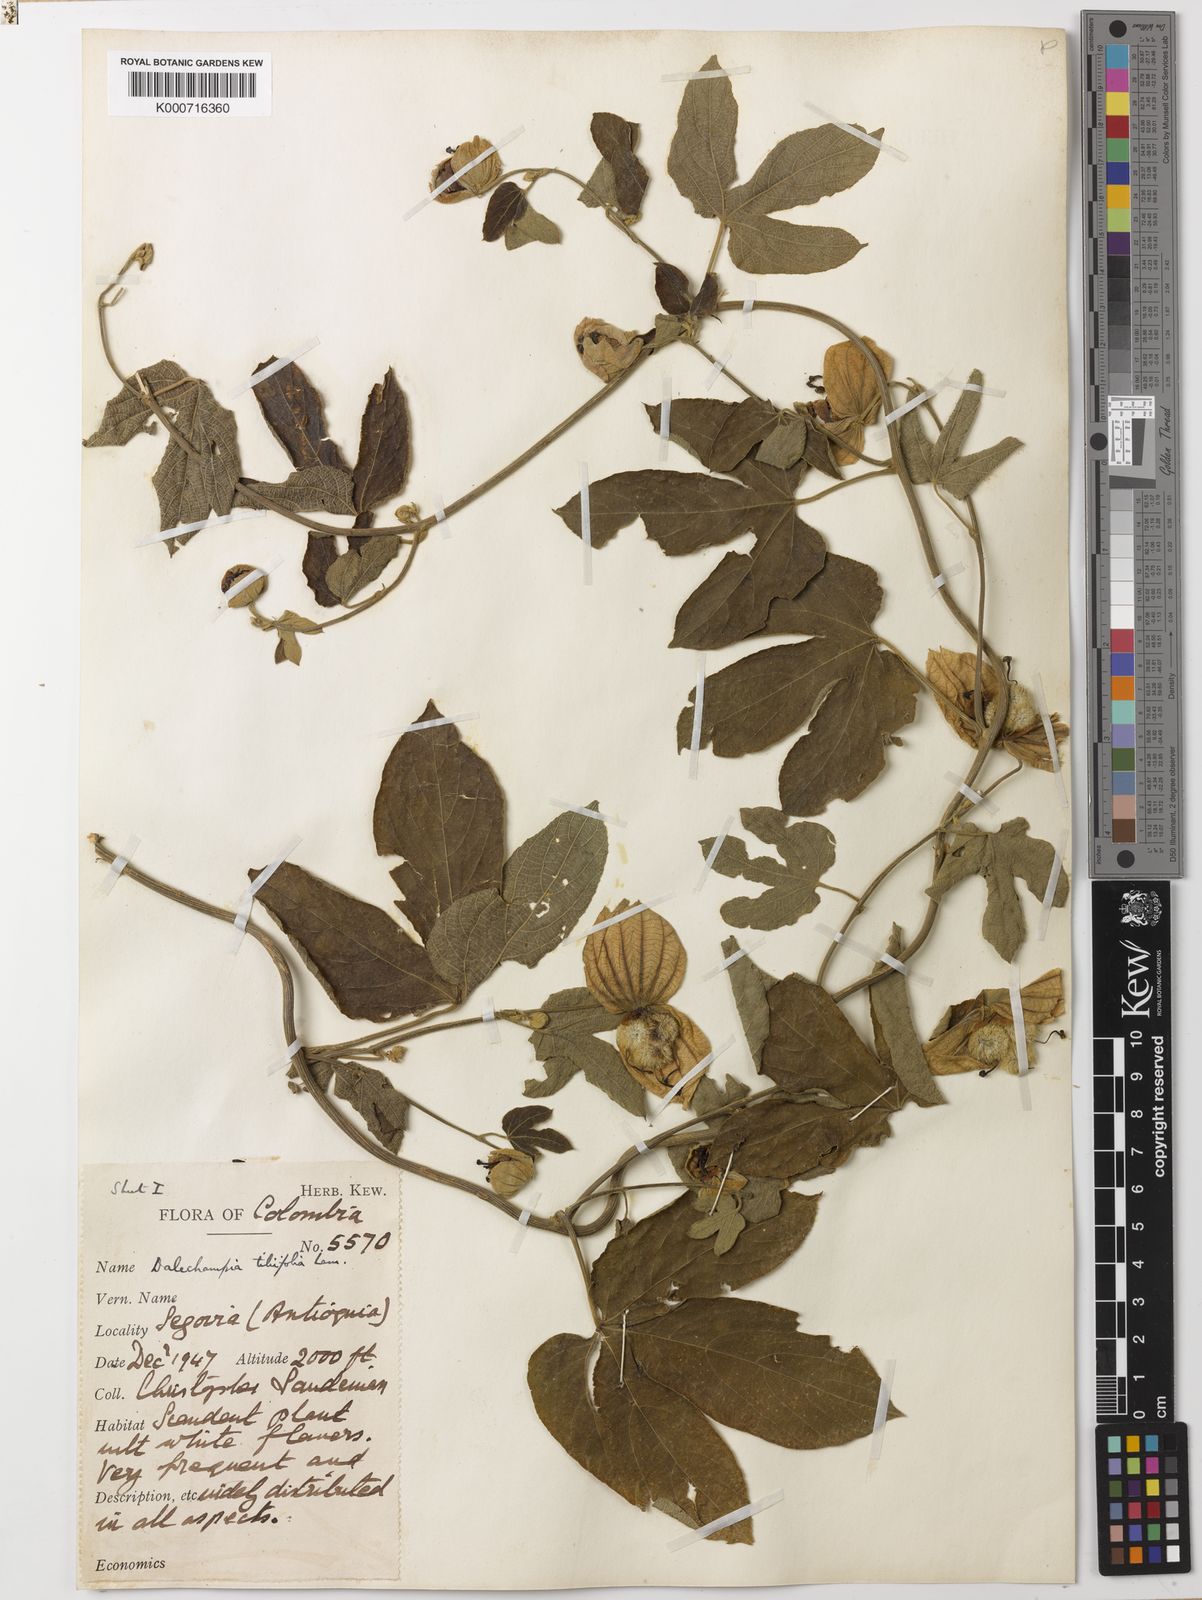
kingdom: Plantae
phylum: Tracheophyta
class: Magnoliopsida
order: Malpighiales
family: Euphorbiaceae
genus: Dalechampia
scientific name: Dalechampia tiliifolia
